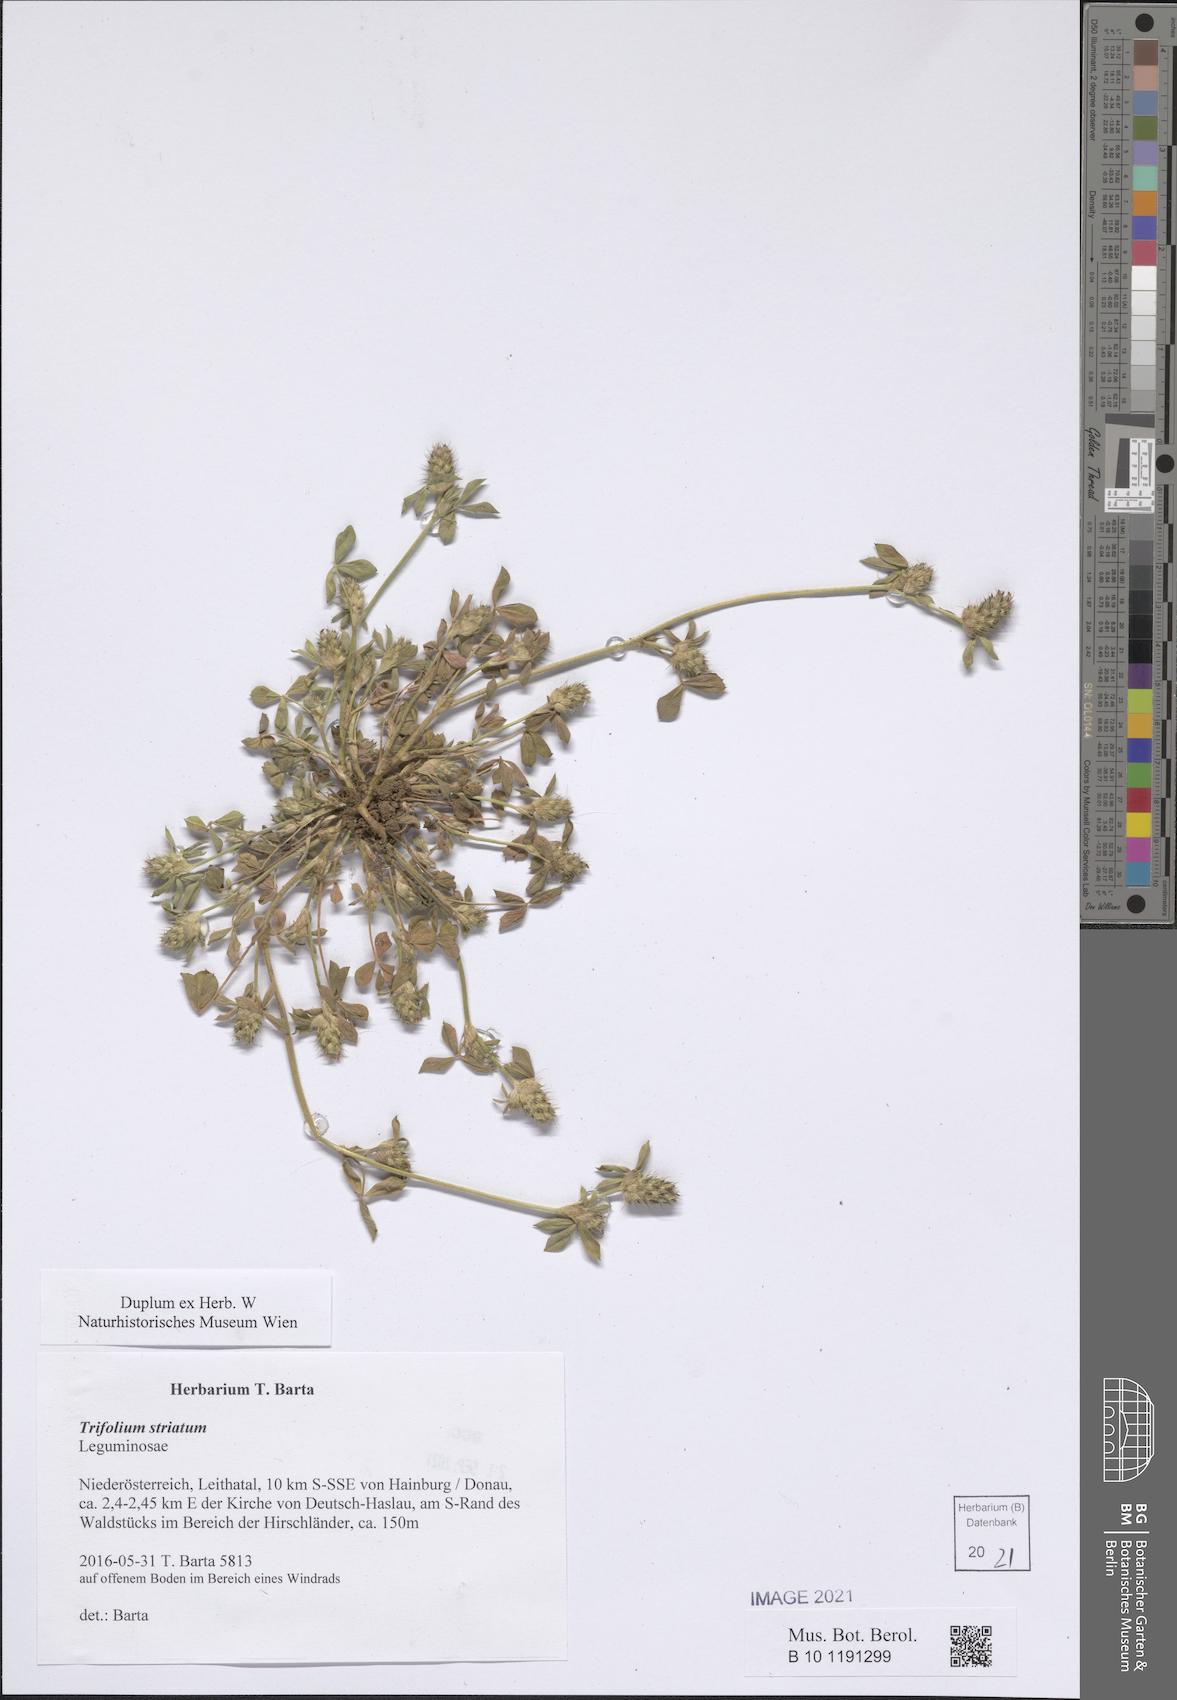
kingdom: Plantae
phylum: Tracheophyta
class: Magnoliopsida
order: Fabales
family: Fabaceae
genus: Trifolium
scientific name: Trifolium striatum
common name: Knotted clover
